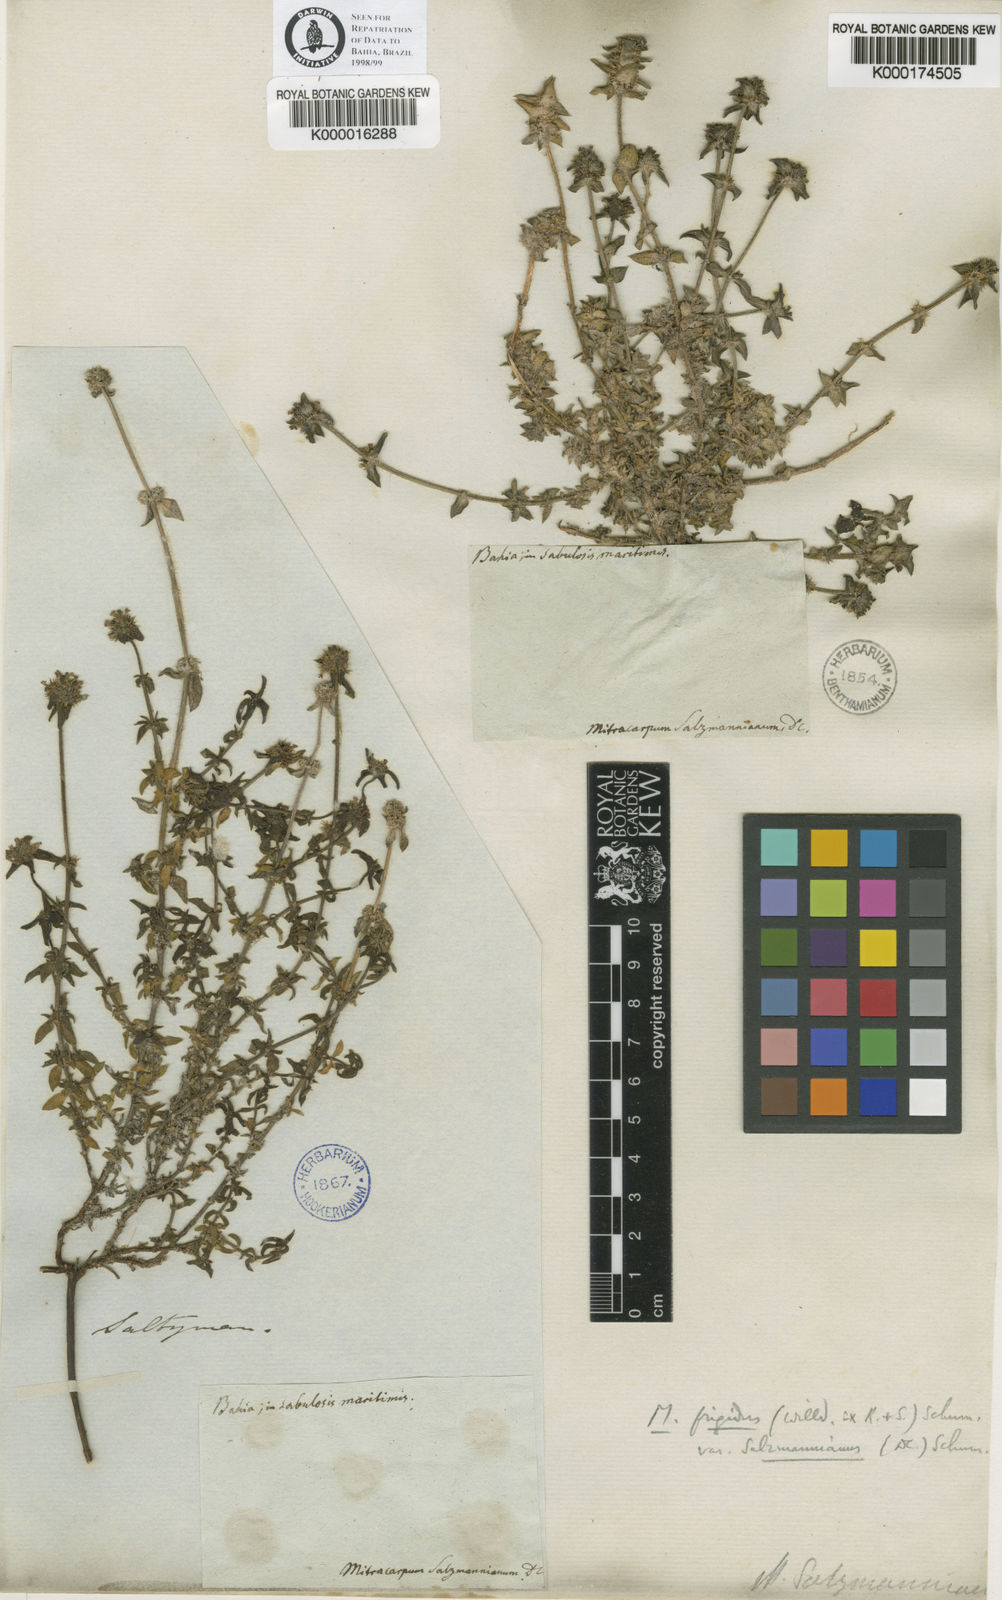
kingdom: Plantae
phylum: Tracheophyta
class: Magnoliopsida
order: Gentianales
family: Rubiaceae
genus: Mitracarpus
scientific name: Mitracarpus salzmannianus
